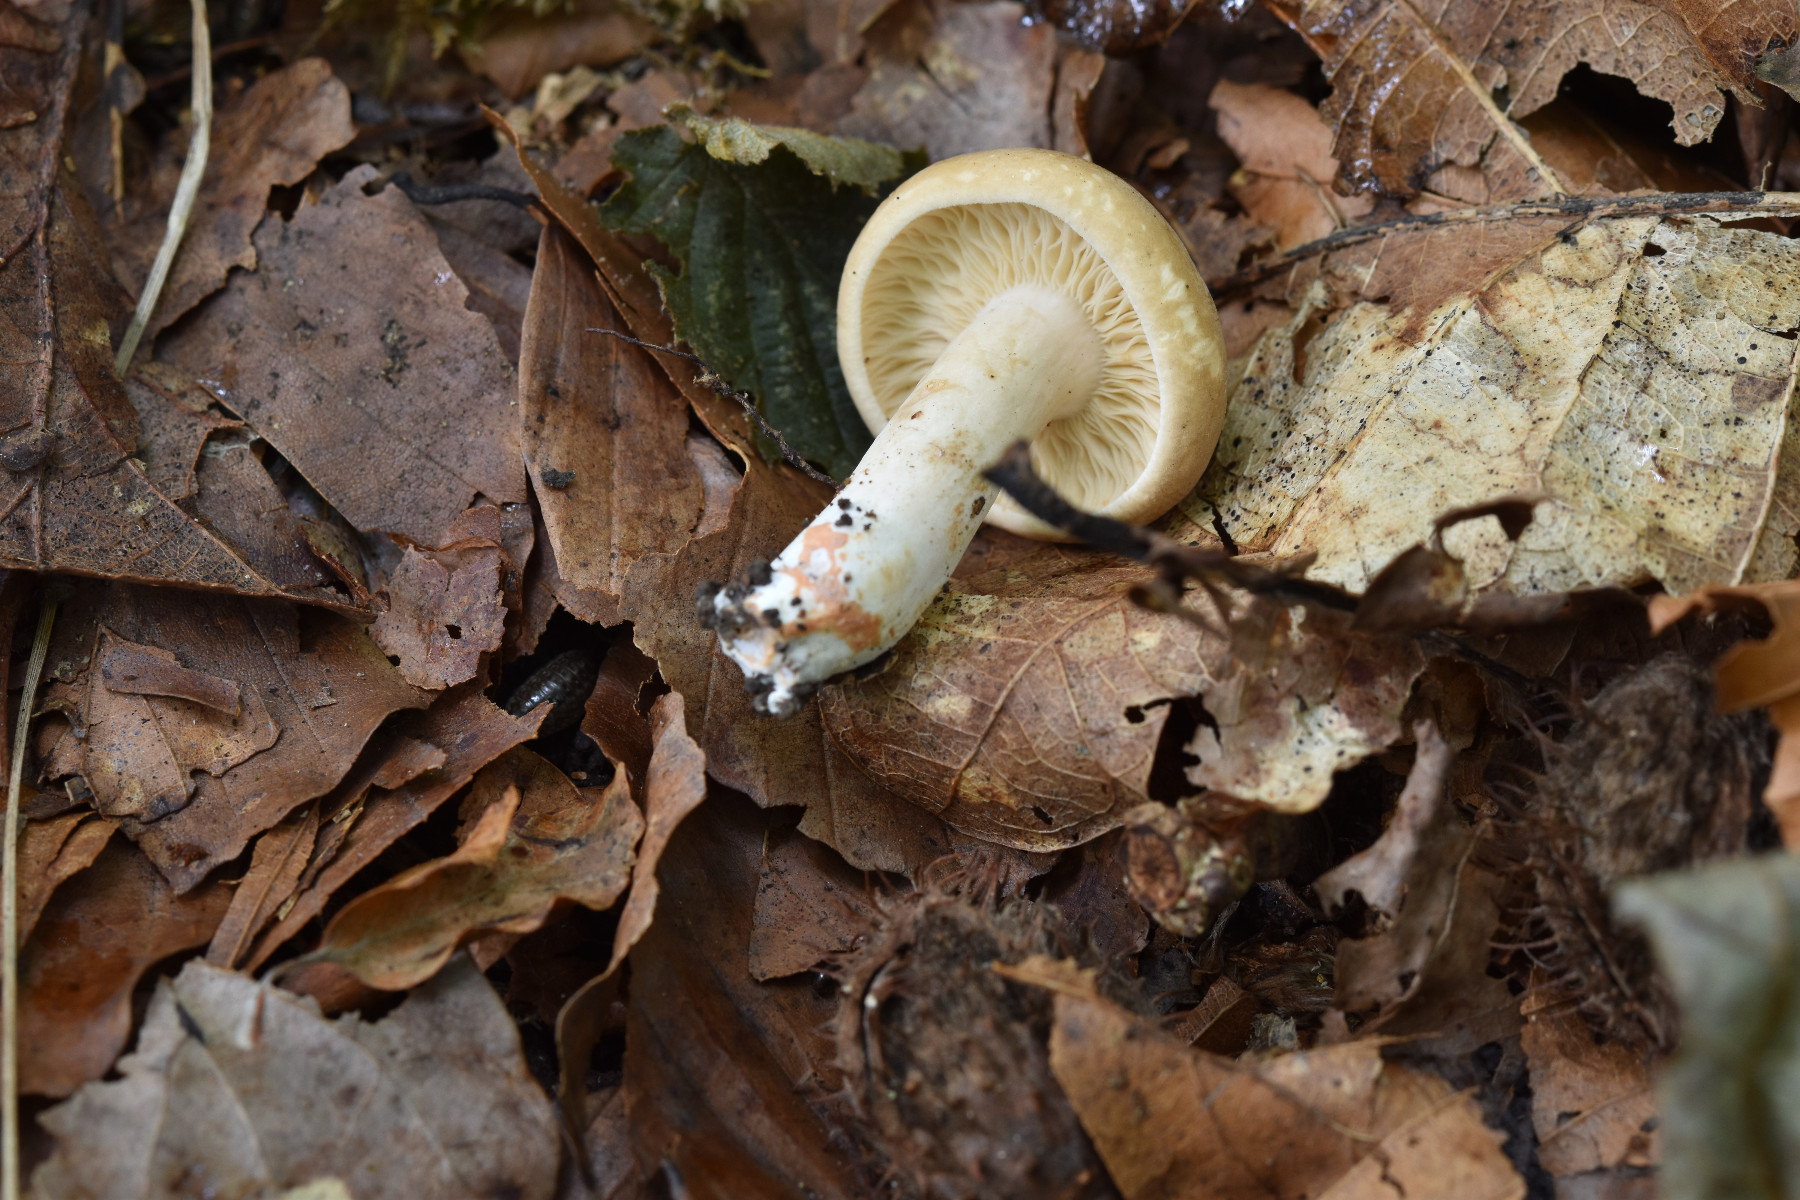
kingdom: Fungi
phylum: Basidiomycota
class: Agaricomycetes
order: Russulales
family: Russulaceae
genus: Lactarius
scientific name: Lactarius azonites
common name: røggrå mælkehat
